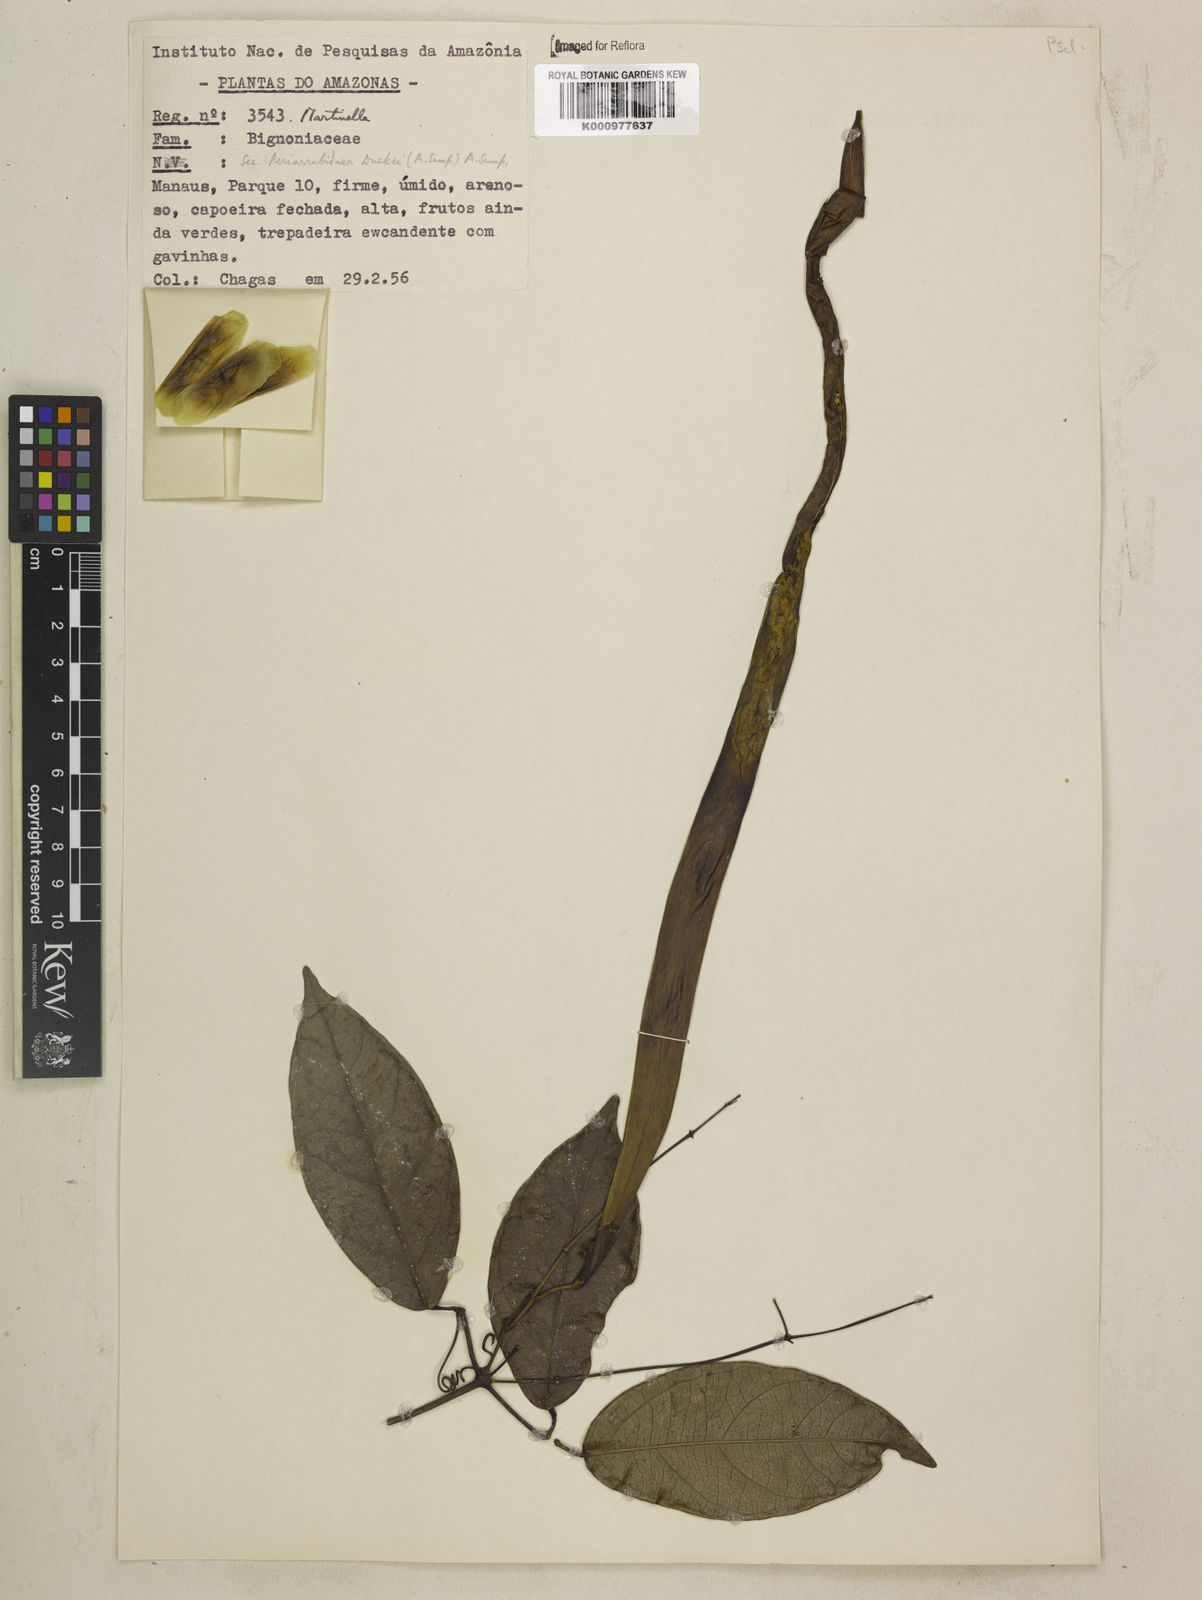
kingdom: Animalia
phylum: Arthropoda
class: Insecta
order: Coleoptera
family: Chrysomelidae
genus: Martinella
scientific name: Martinella obovata
